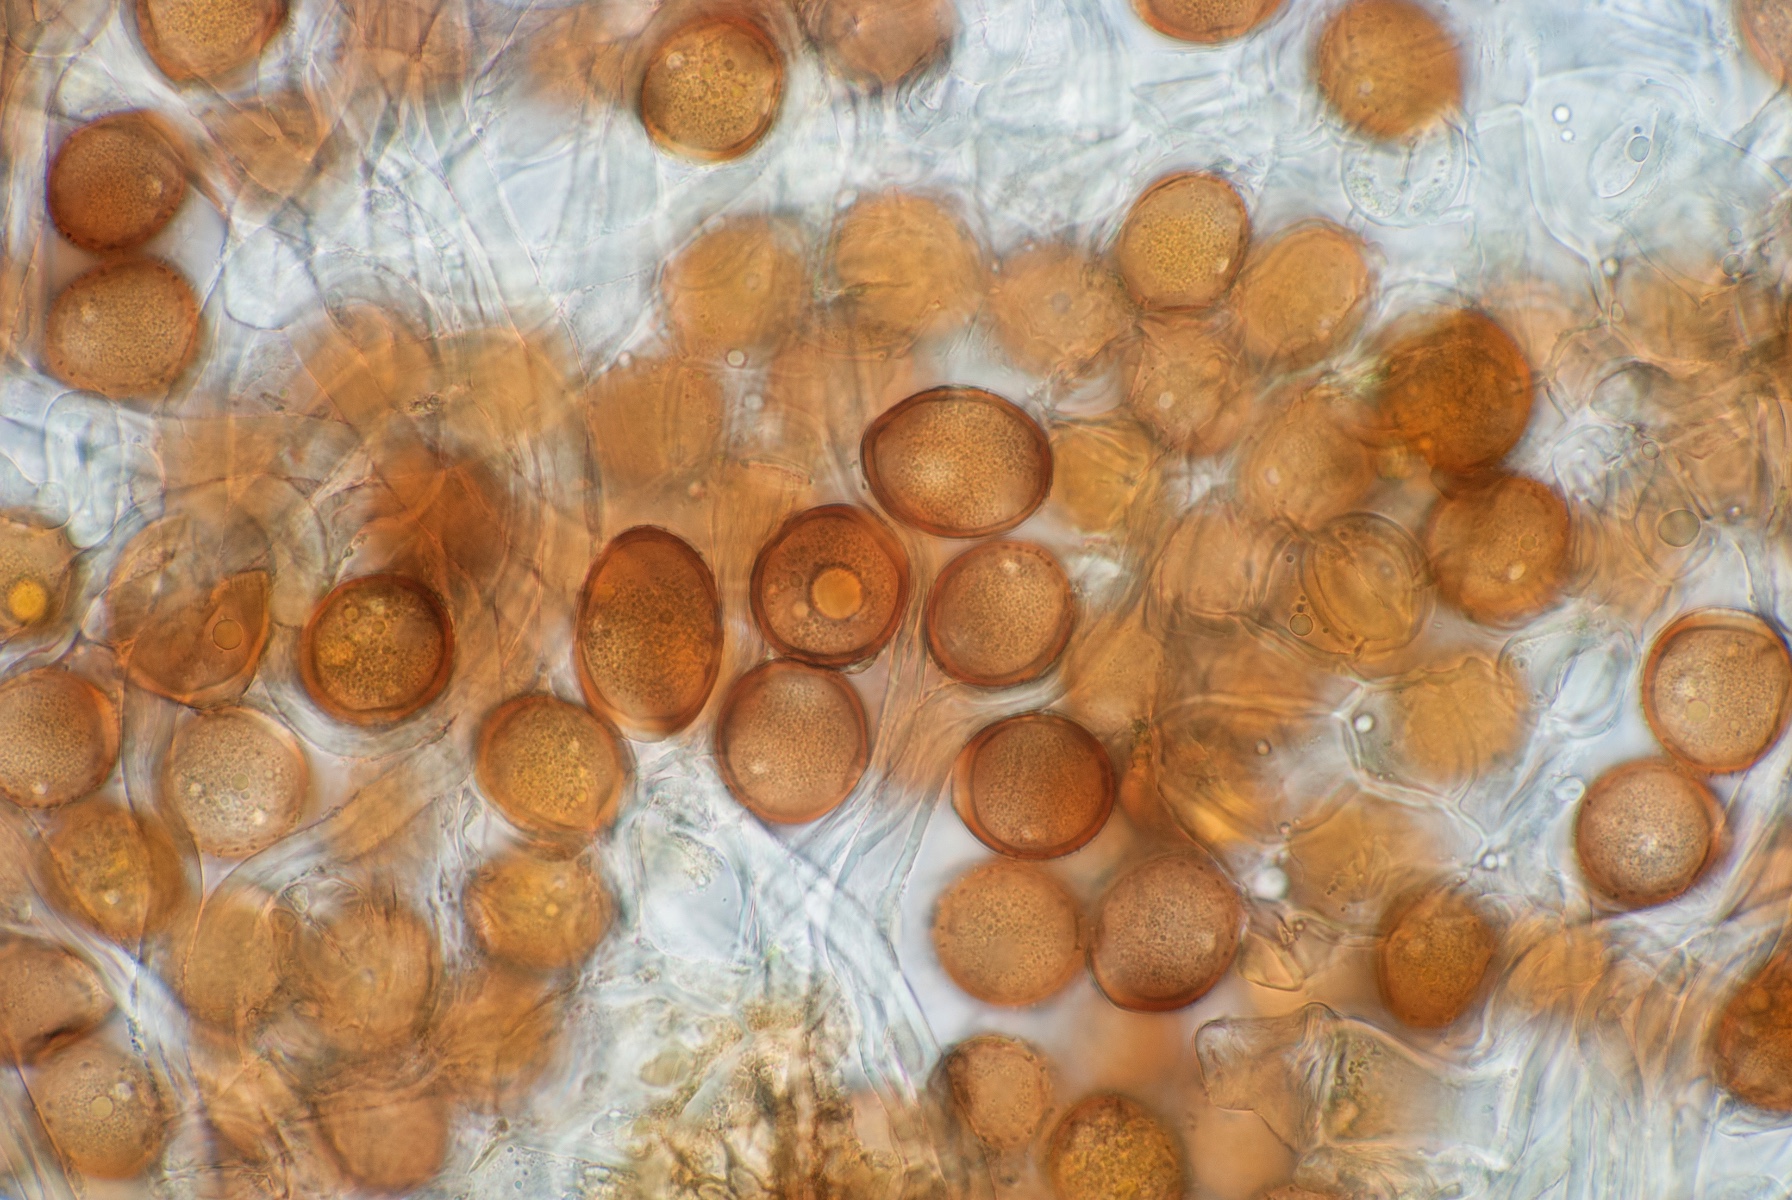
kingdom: Fungi
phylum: Basidiomycota
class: Pucciniomycetes
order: Pucciniales
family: Pucciniaceae
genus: Puccinia
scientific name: Puccinia calcitrapae
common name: Rust fungus
